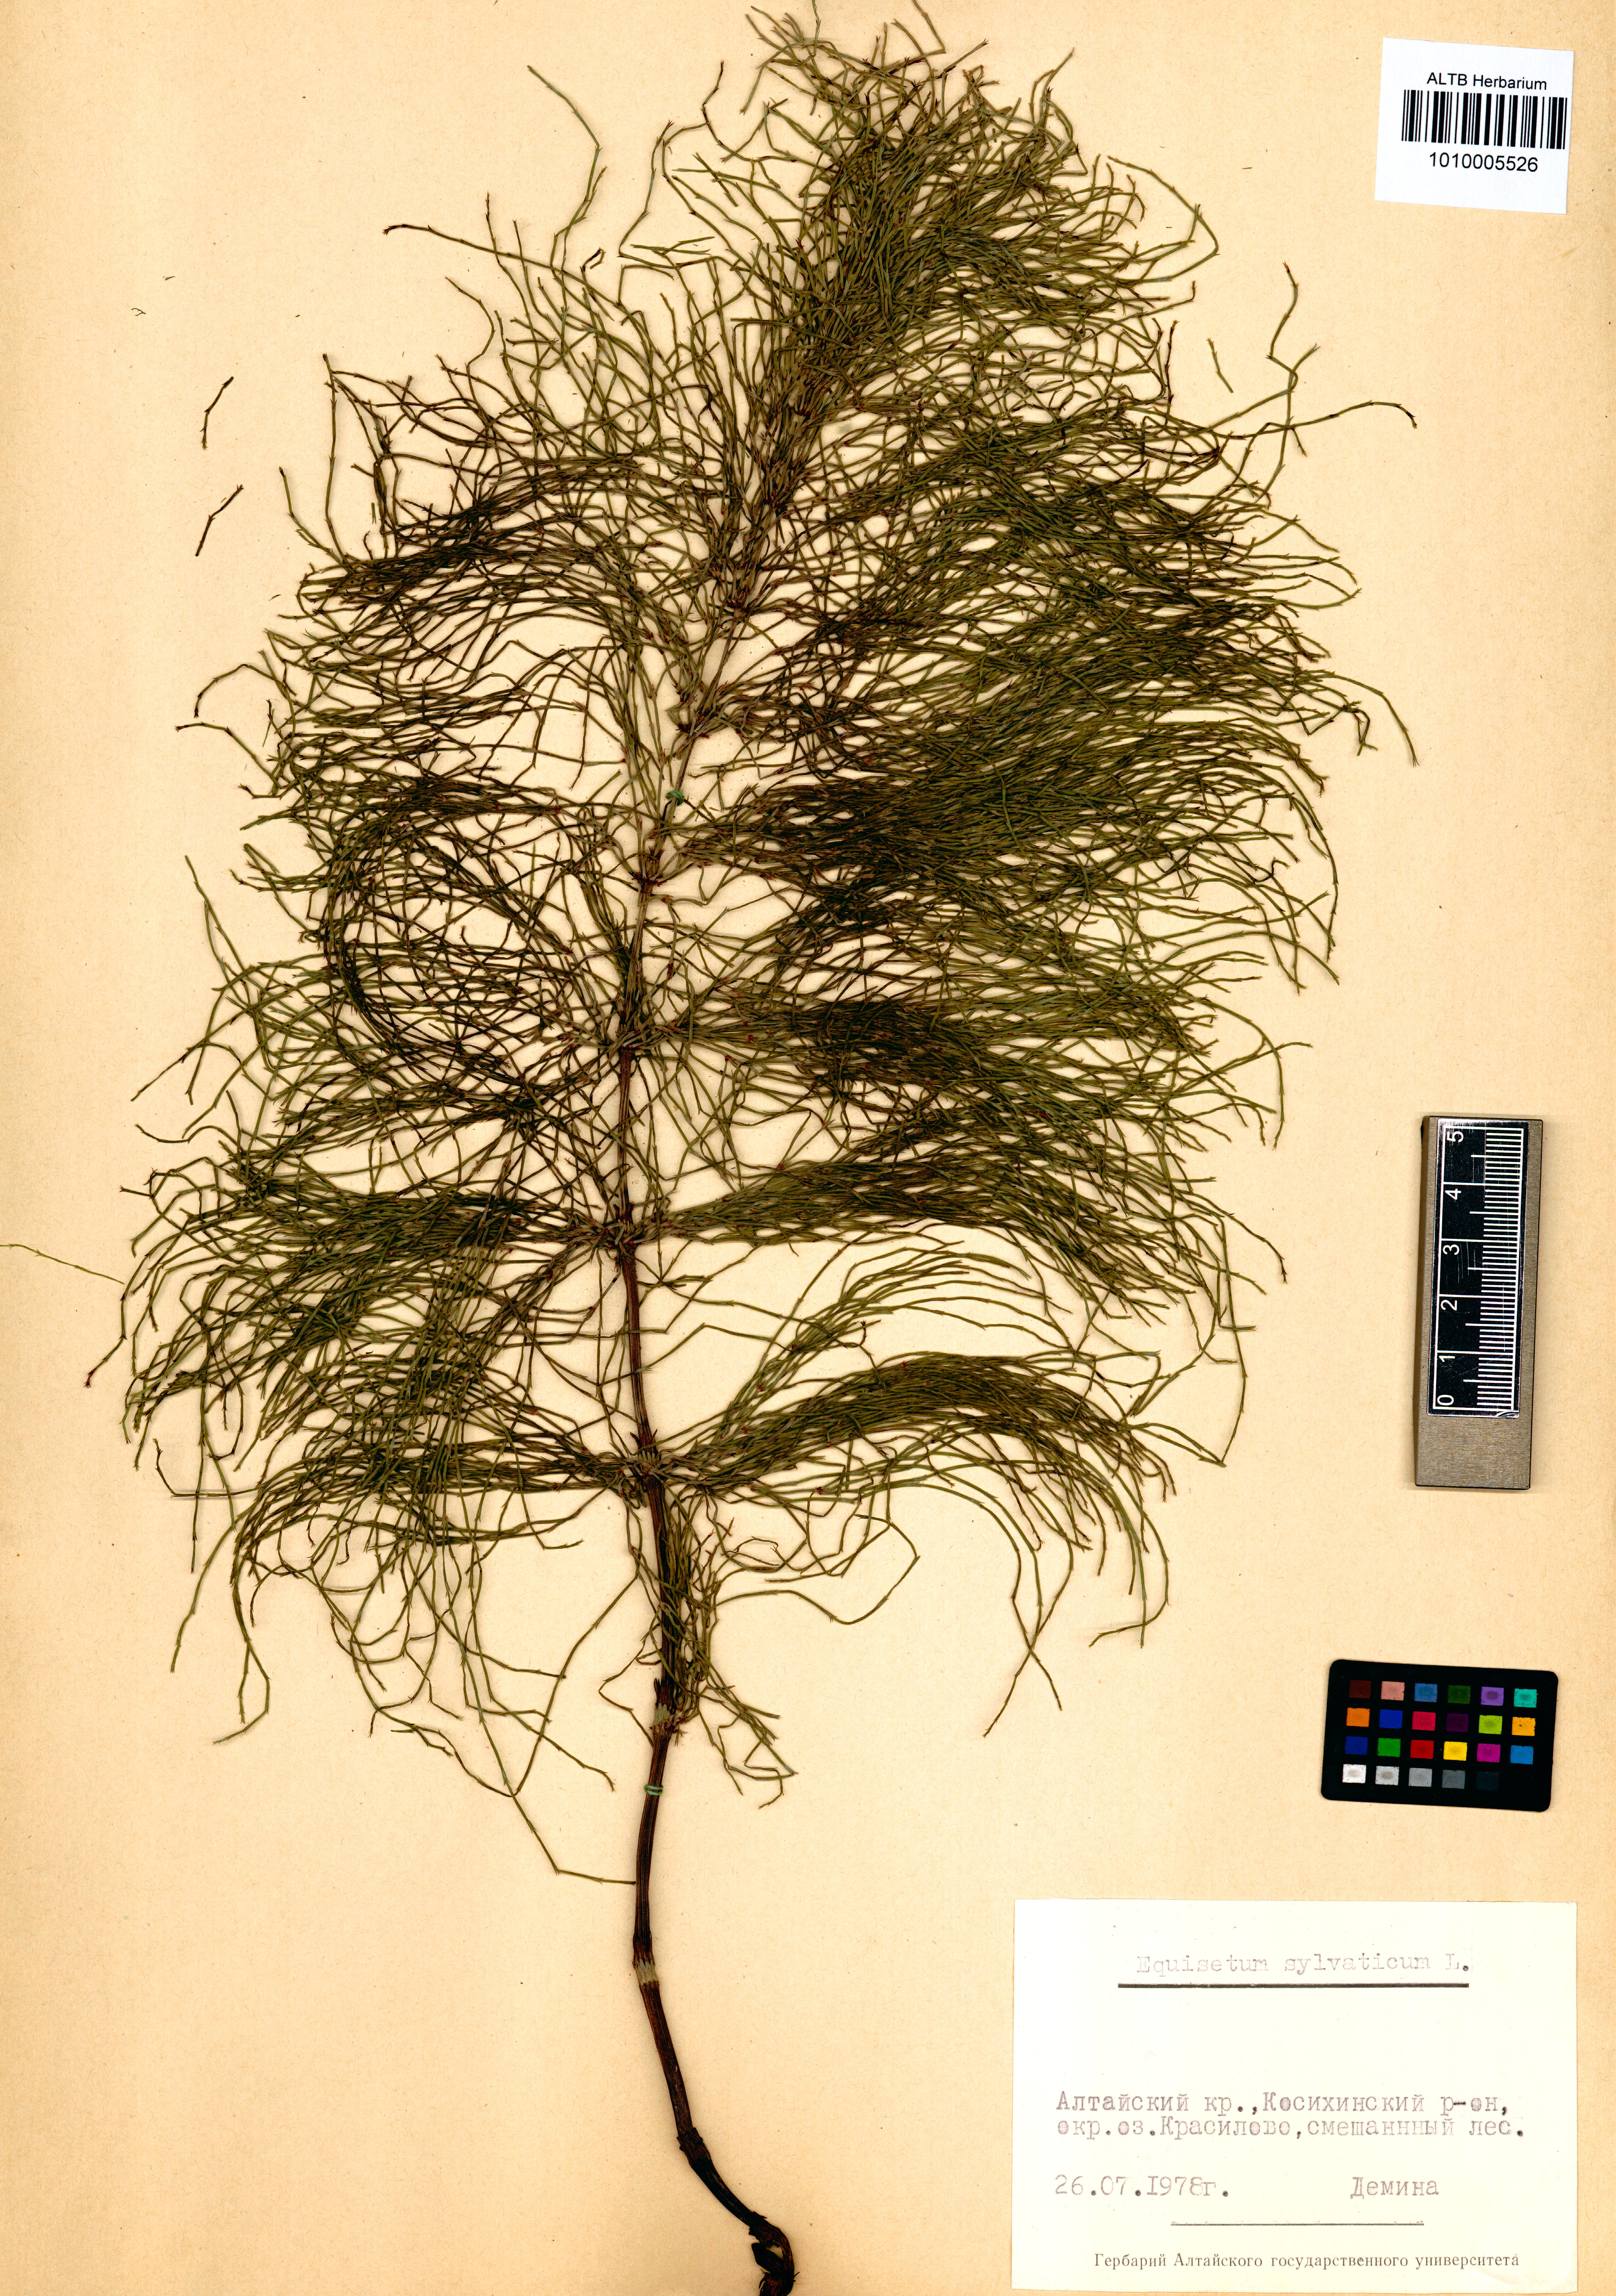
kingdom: Plantae
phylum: Tracheophyta
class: Polypodiopsida
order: Equisetales
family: Equisetaceae
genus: Equisetum
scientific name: Equisetum sylvaticum
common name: Wood horsetail
